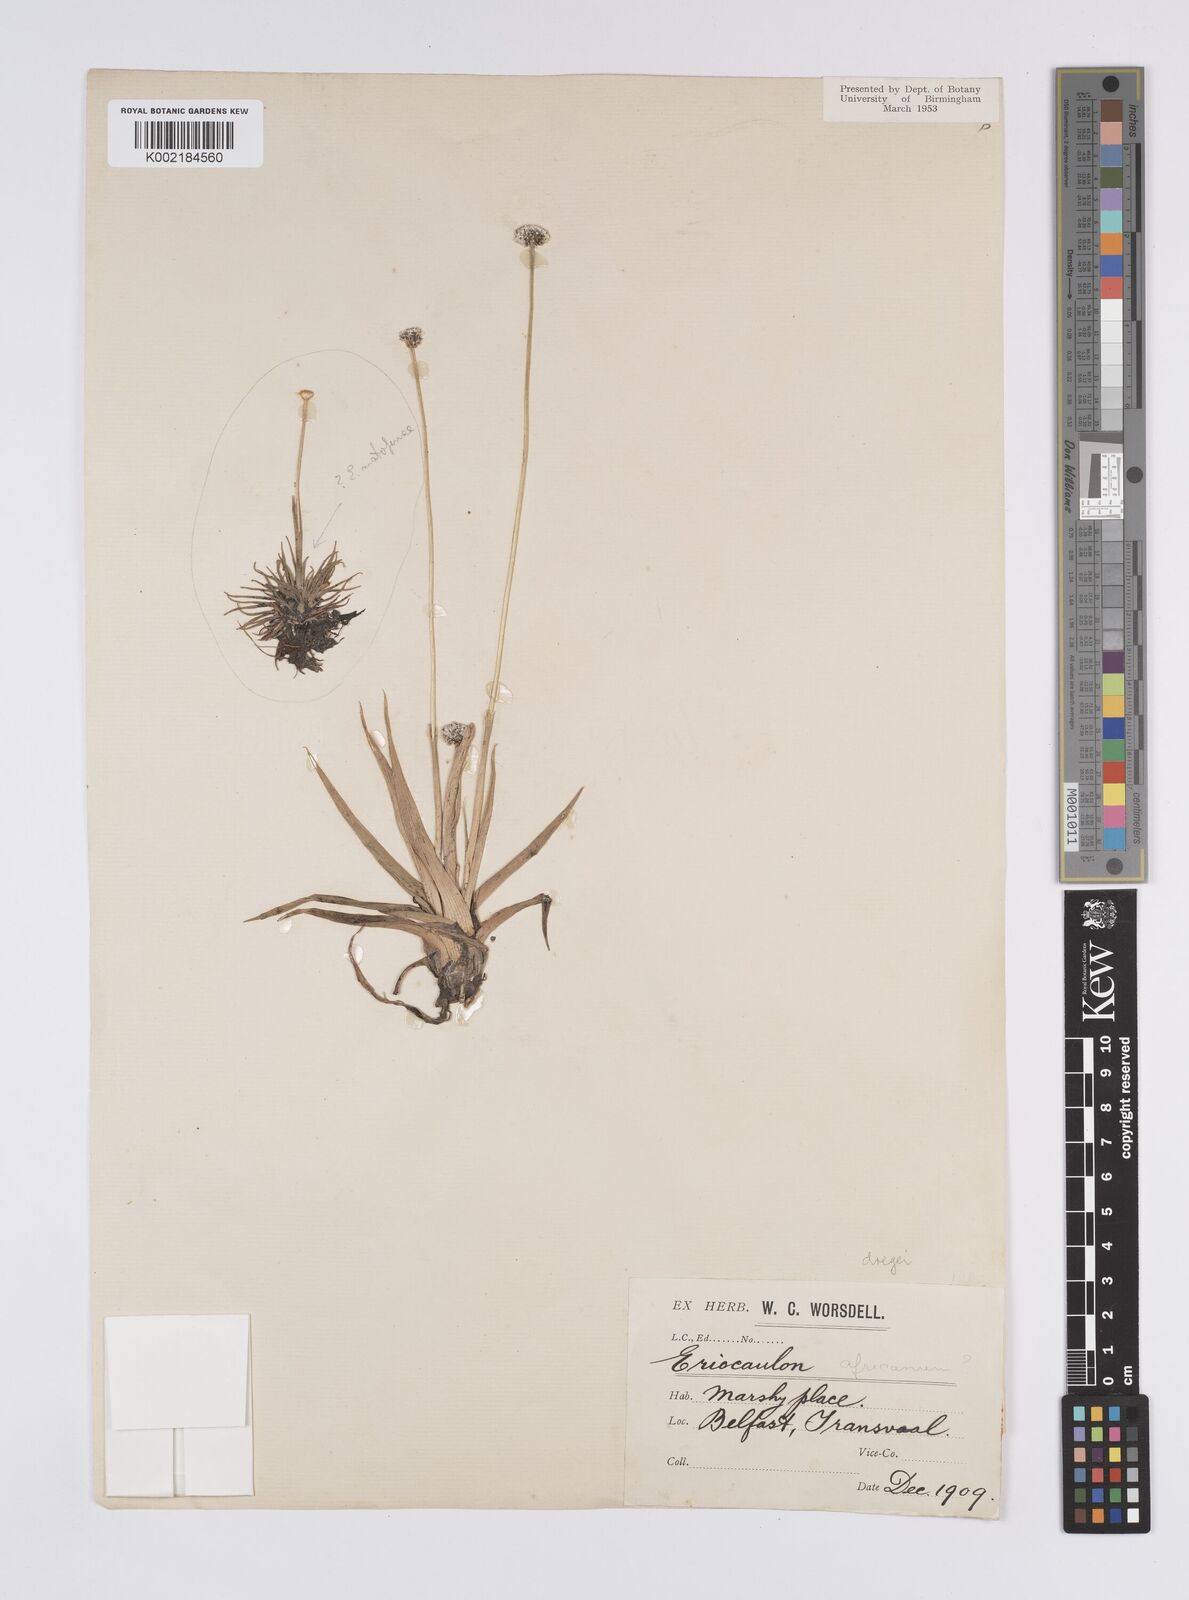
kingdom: Plantae
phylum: Tracheophyta
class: Liliopsida
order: Poales
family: Eriocaulaceae
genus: Eriocaulon
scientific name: Eriocaulon sonderianum
